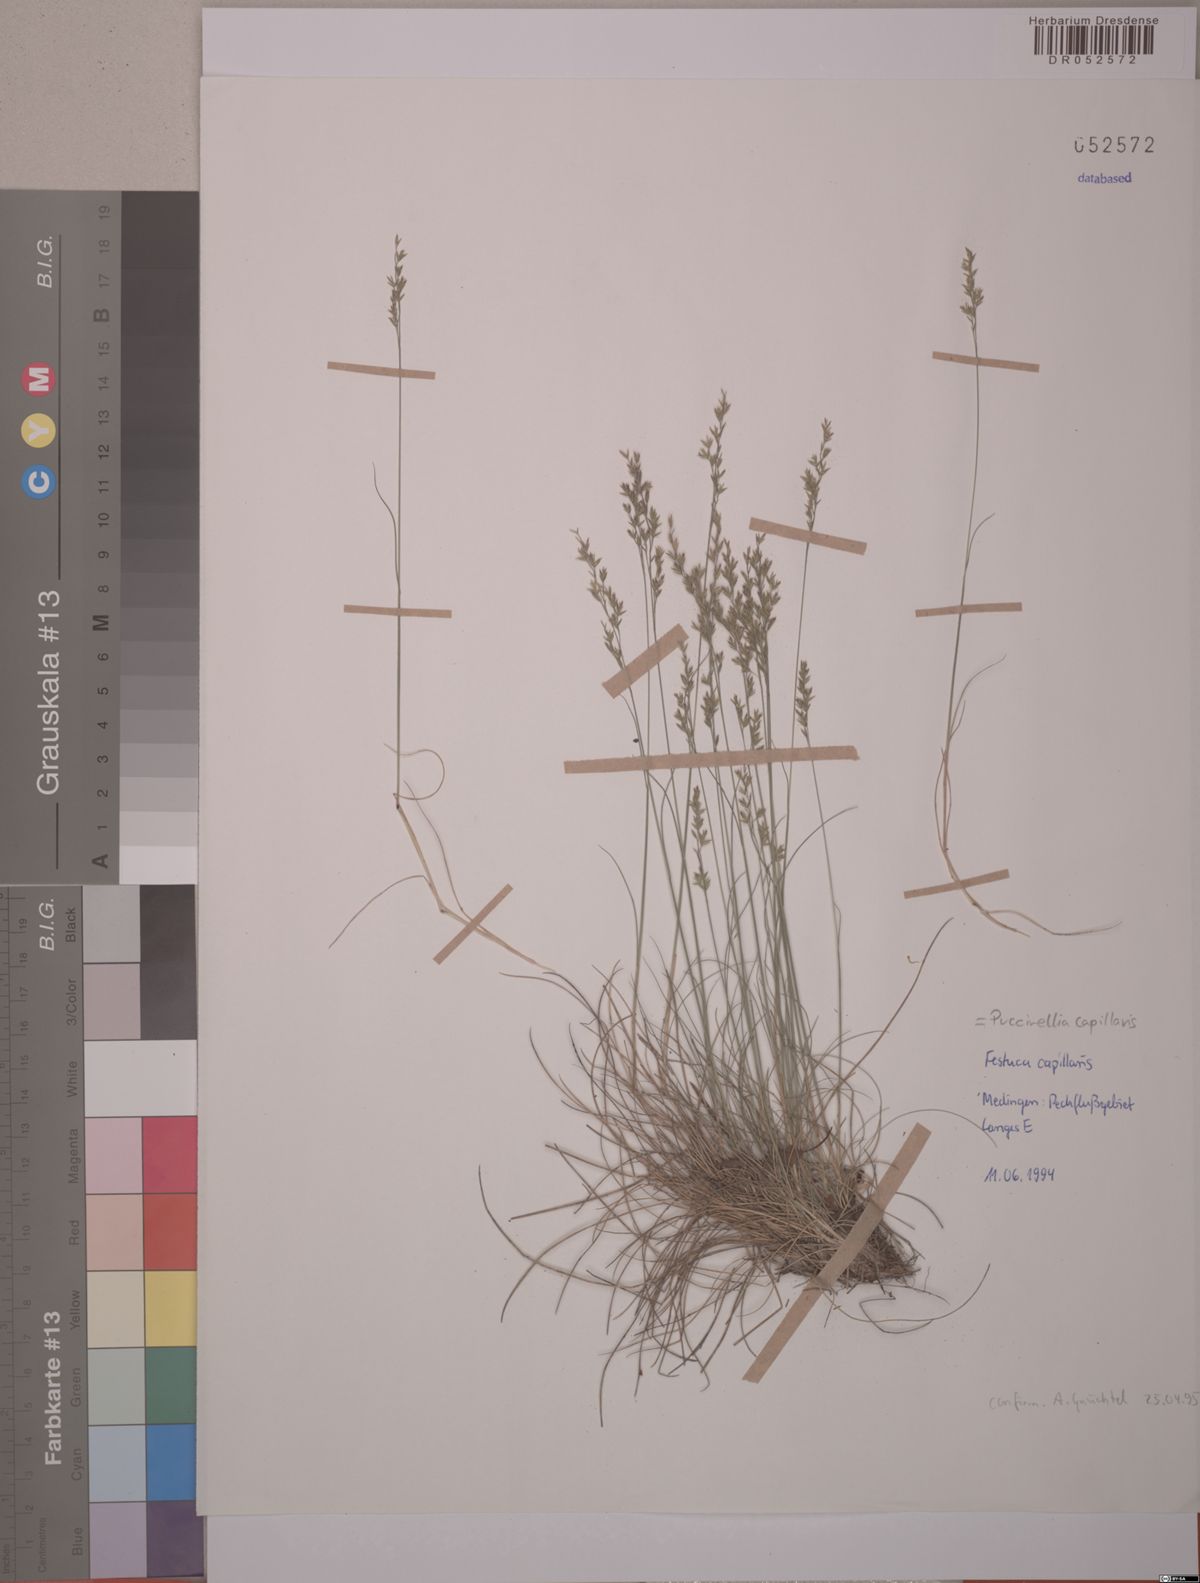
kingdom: Plantae
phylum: Tracheophyta
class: Liliopsida
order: Poales
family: Poaceae
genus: Festuca
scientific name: Festuca filiformis
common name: Fine-leaved sheep's-fescue
